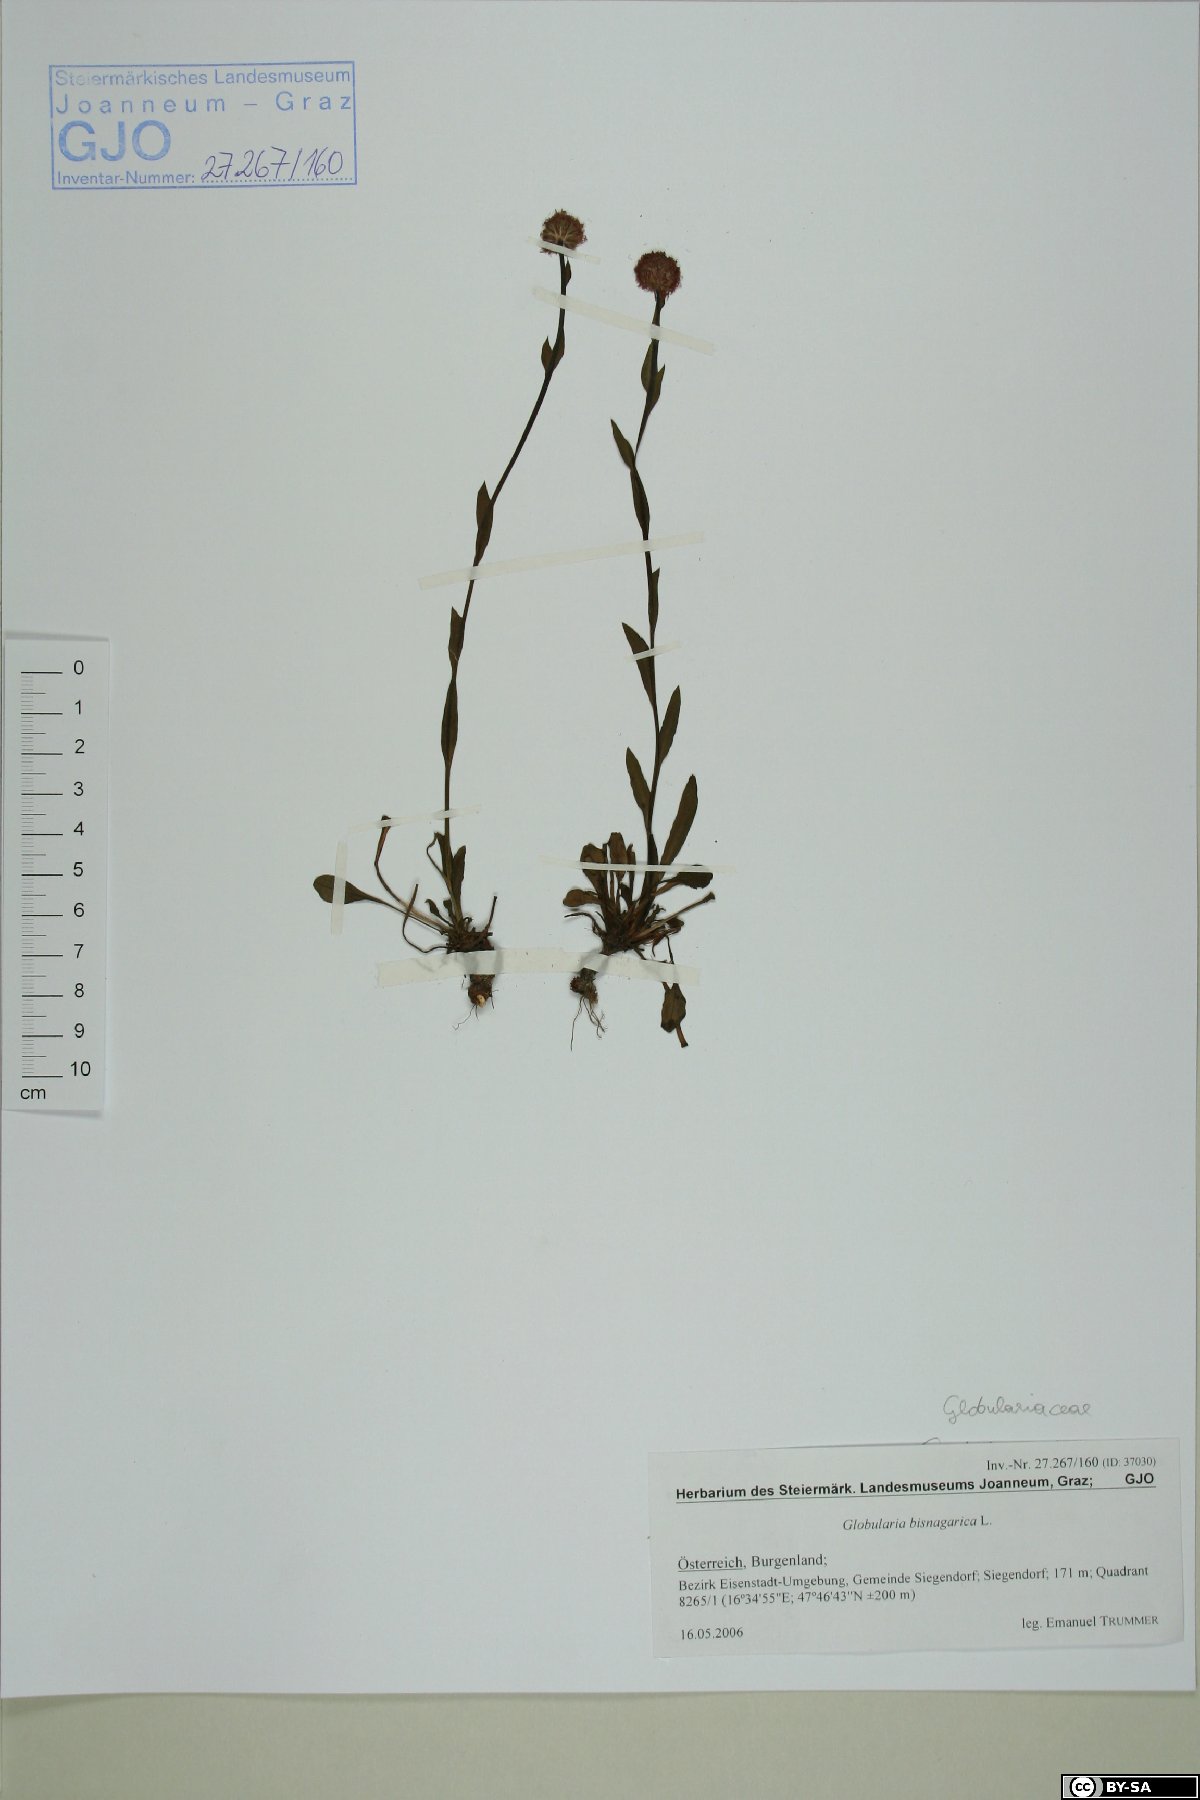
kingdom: Plantae
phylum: Tracheophyta
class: Magnoliopsida
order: Lamiales
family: Plantaginaceae
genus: Globularia
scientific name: Globularia bisnagarica
